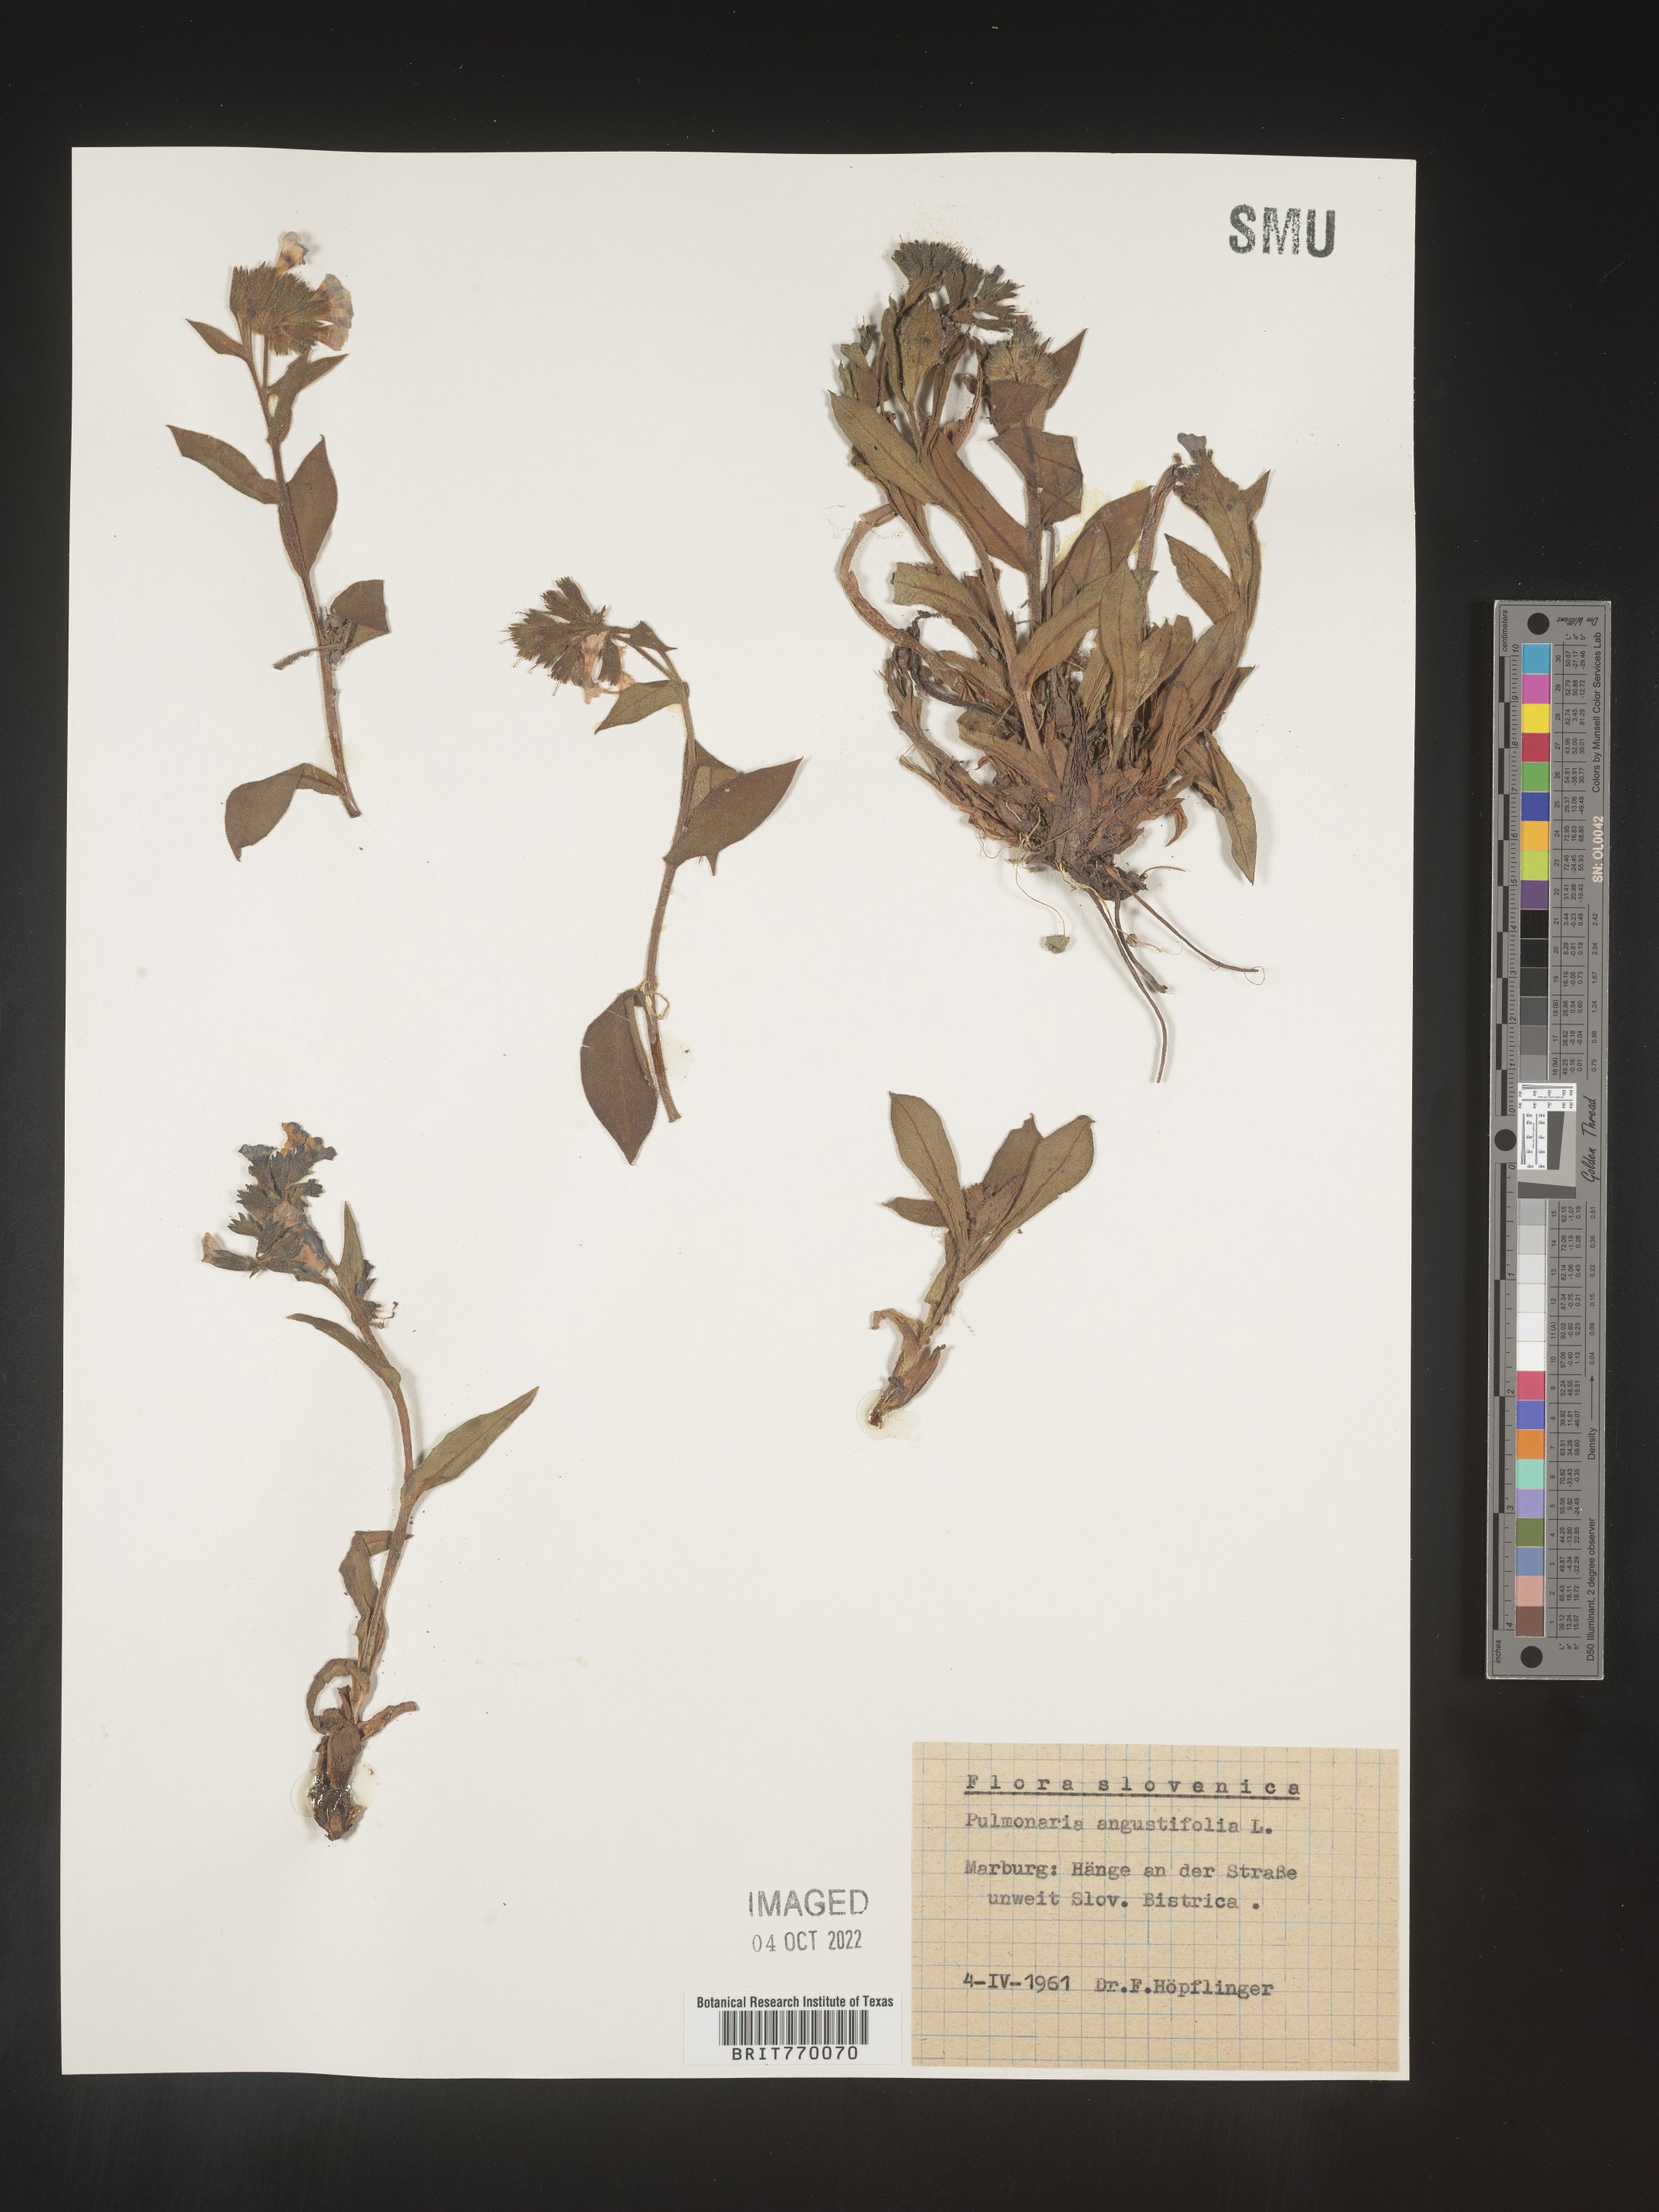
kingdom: Plantae
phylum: Tracheophyta
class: Magnoliopsida
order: Boraginales
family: Boraginaceae
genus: Pulmonaria
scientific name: Pulmonaria
